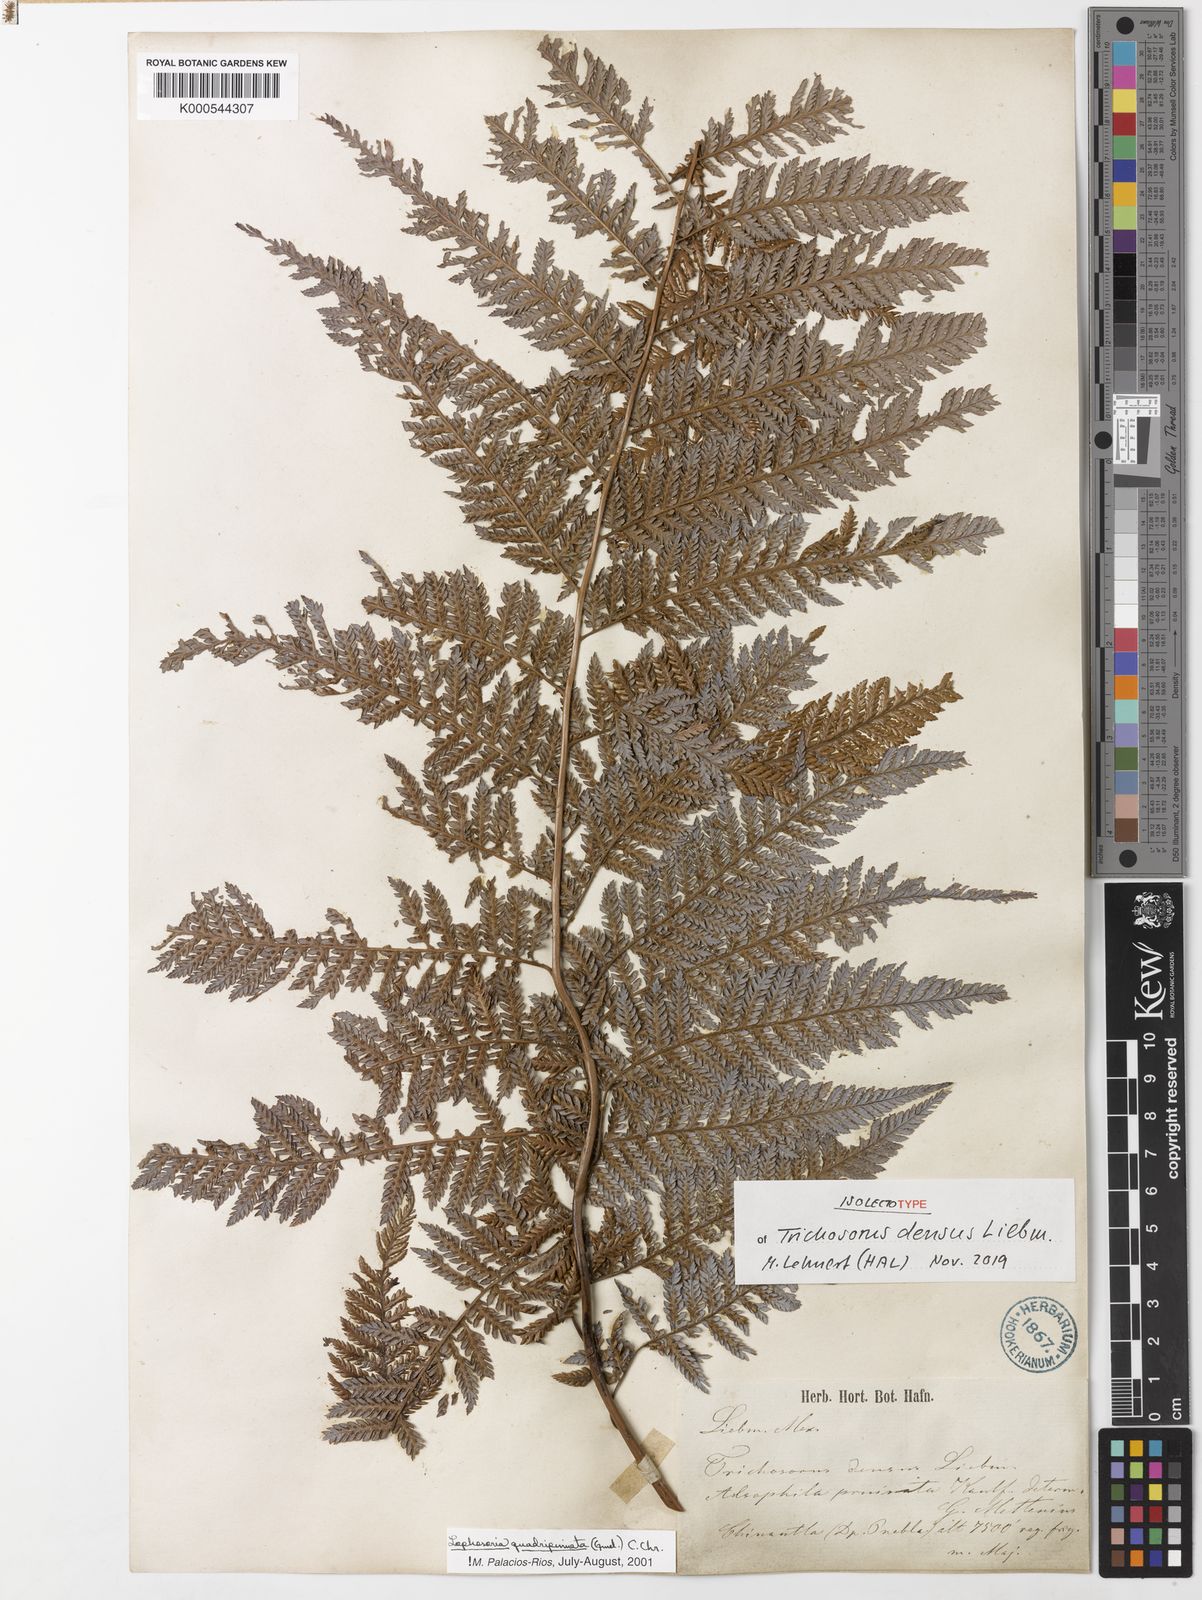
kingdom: Plantae
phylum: Tracheophyta
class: Polypodiopsida
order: Cyatheales
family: Dicksoniaceae
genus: Lophosoria
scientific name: Lophosoria quadripinnata
